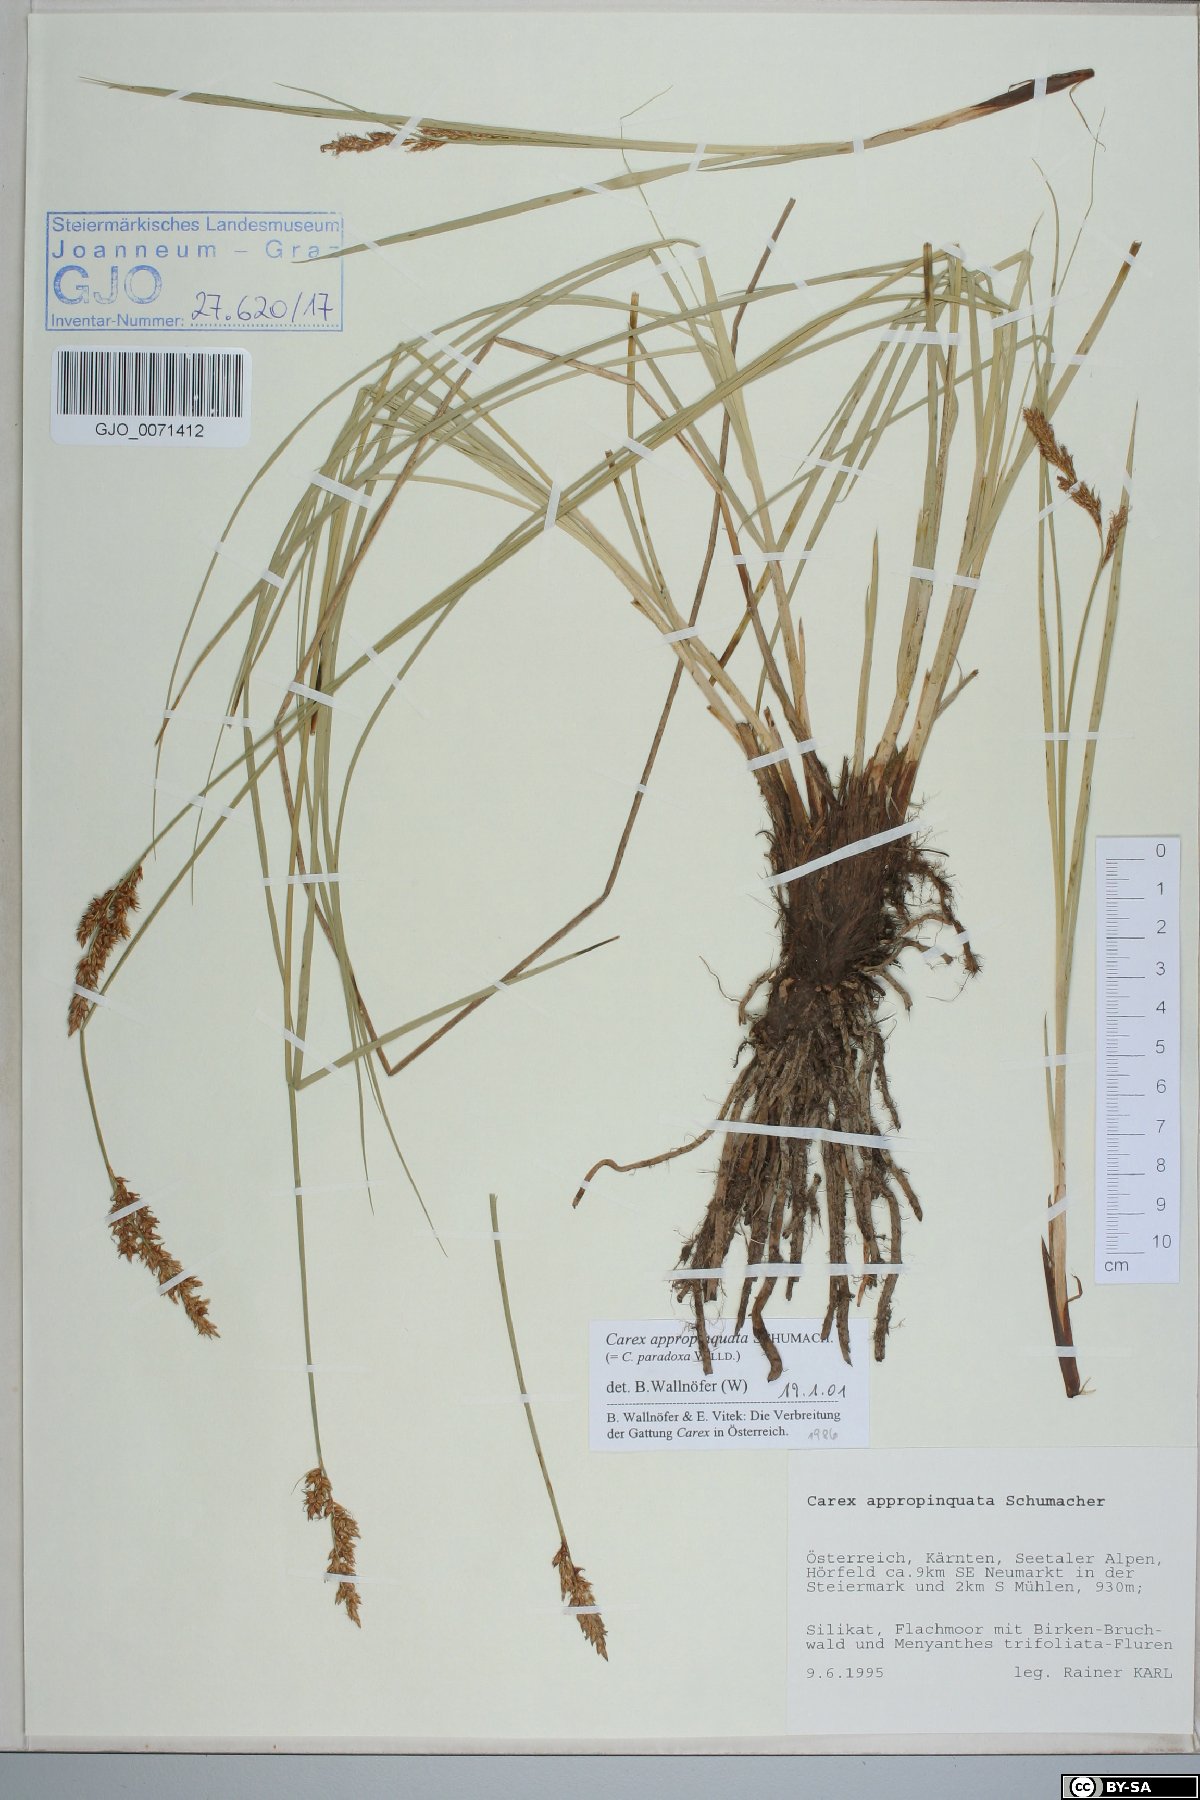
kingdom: Plantae
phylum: Tracheophyta
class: Liliopsida
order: Poales
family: Cyperaceae
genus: Carex
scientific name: Carex appropinquata
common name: Fibrous tussock-sedge
